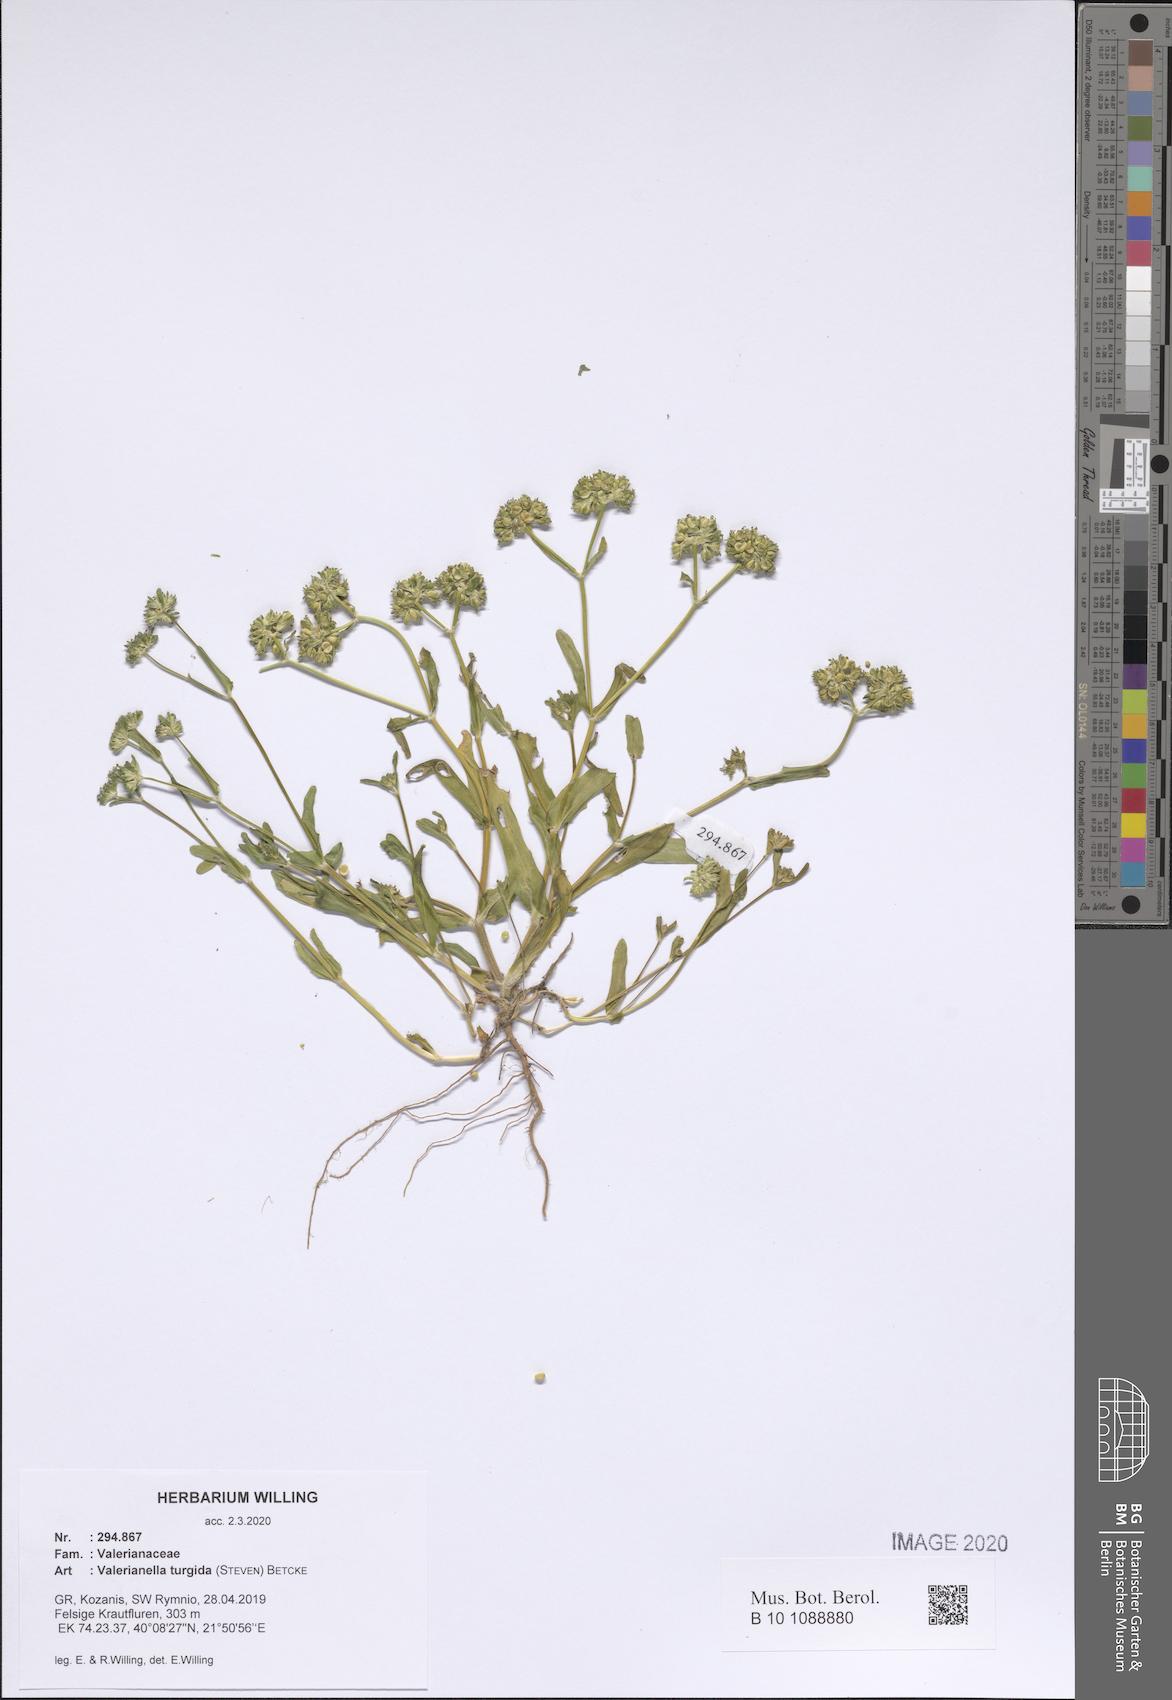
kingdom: Plantae
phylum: Tracheophyta
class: Magnoliopsida
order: Dipsacales
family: Caprifoliaceae
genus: Valerianella
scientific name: Valerianella turgida
